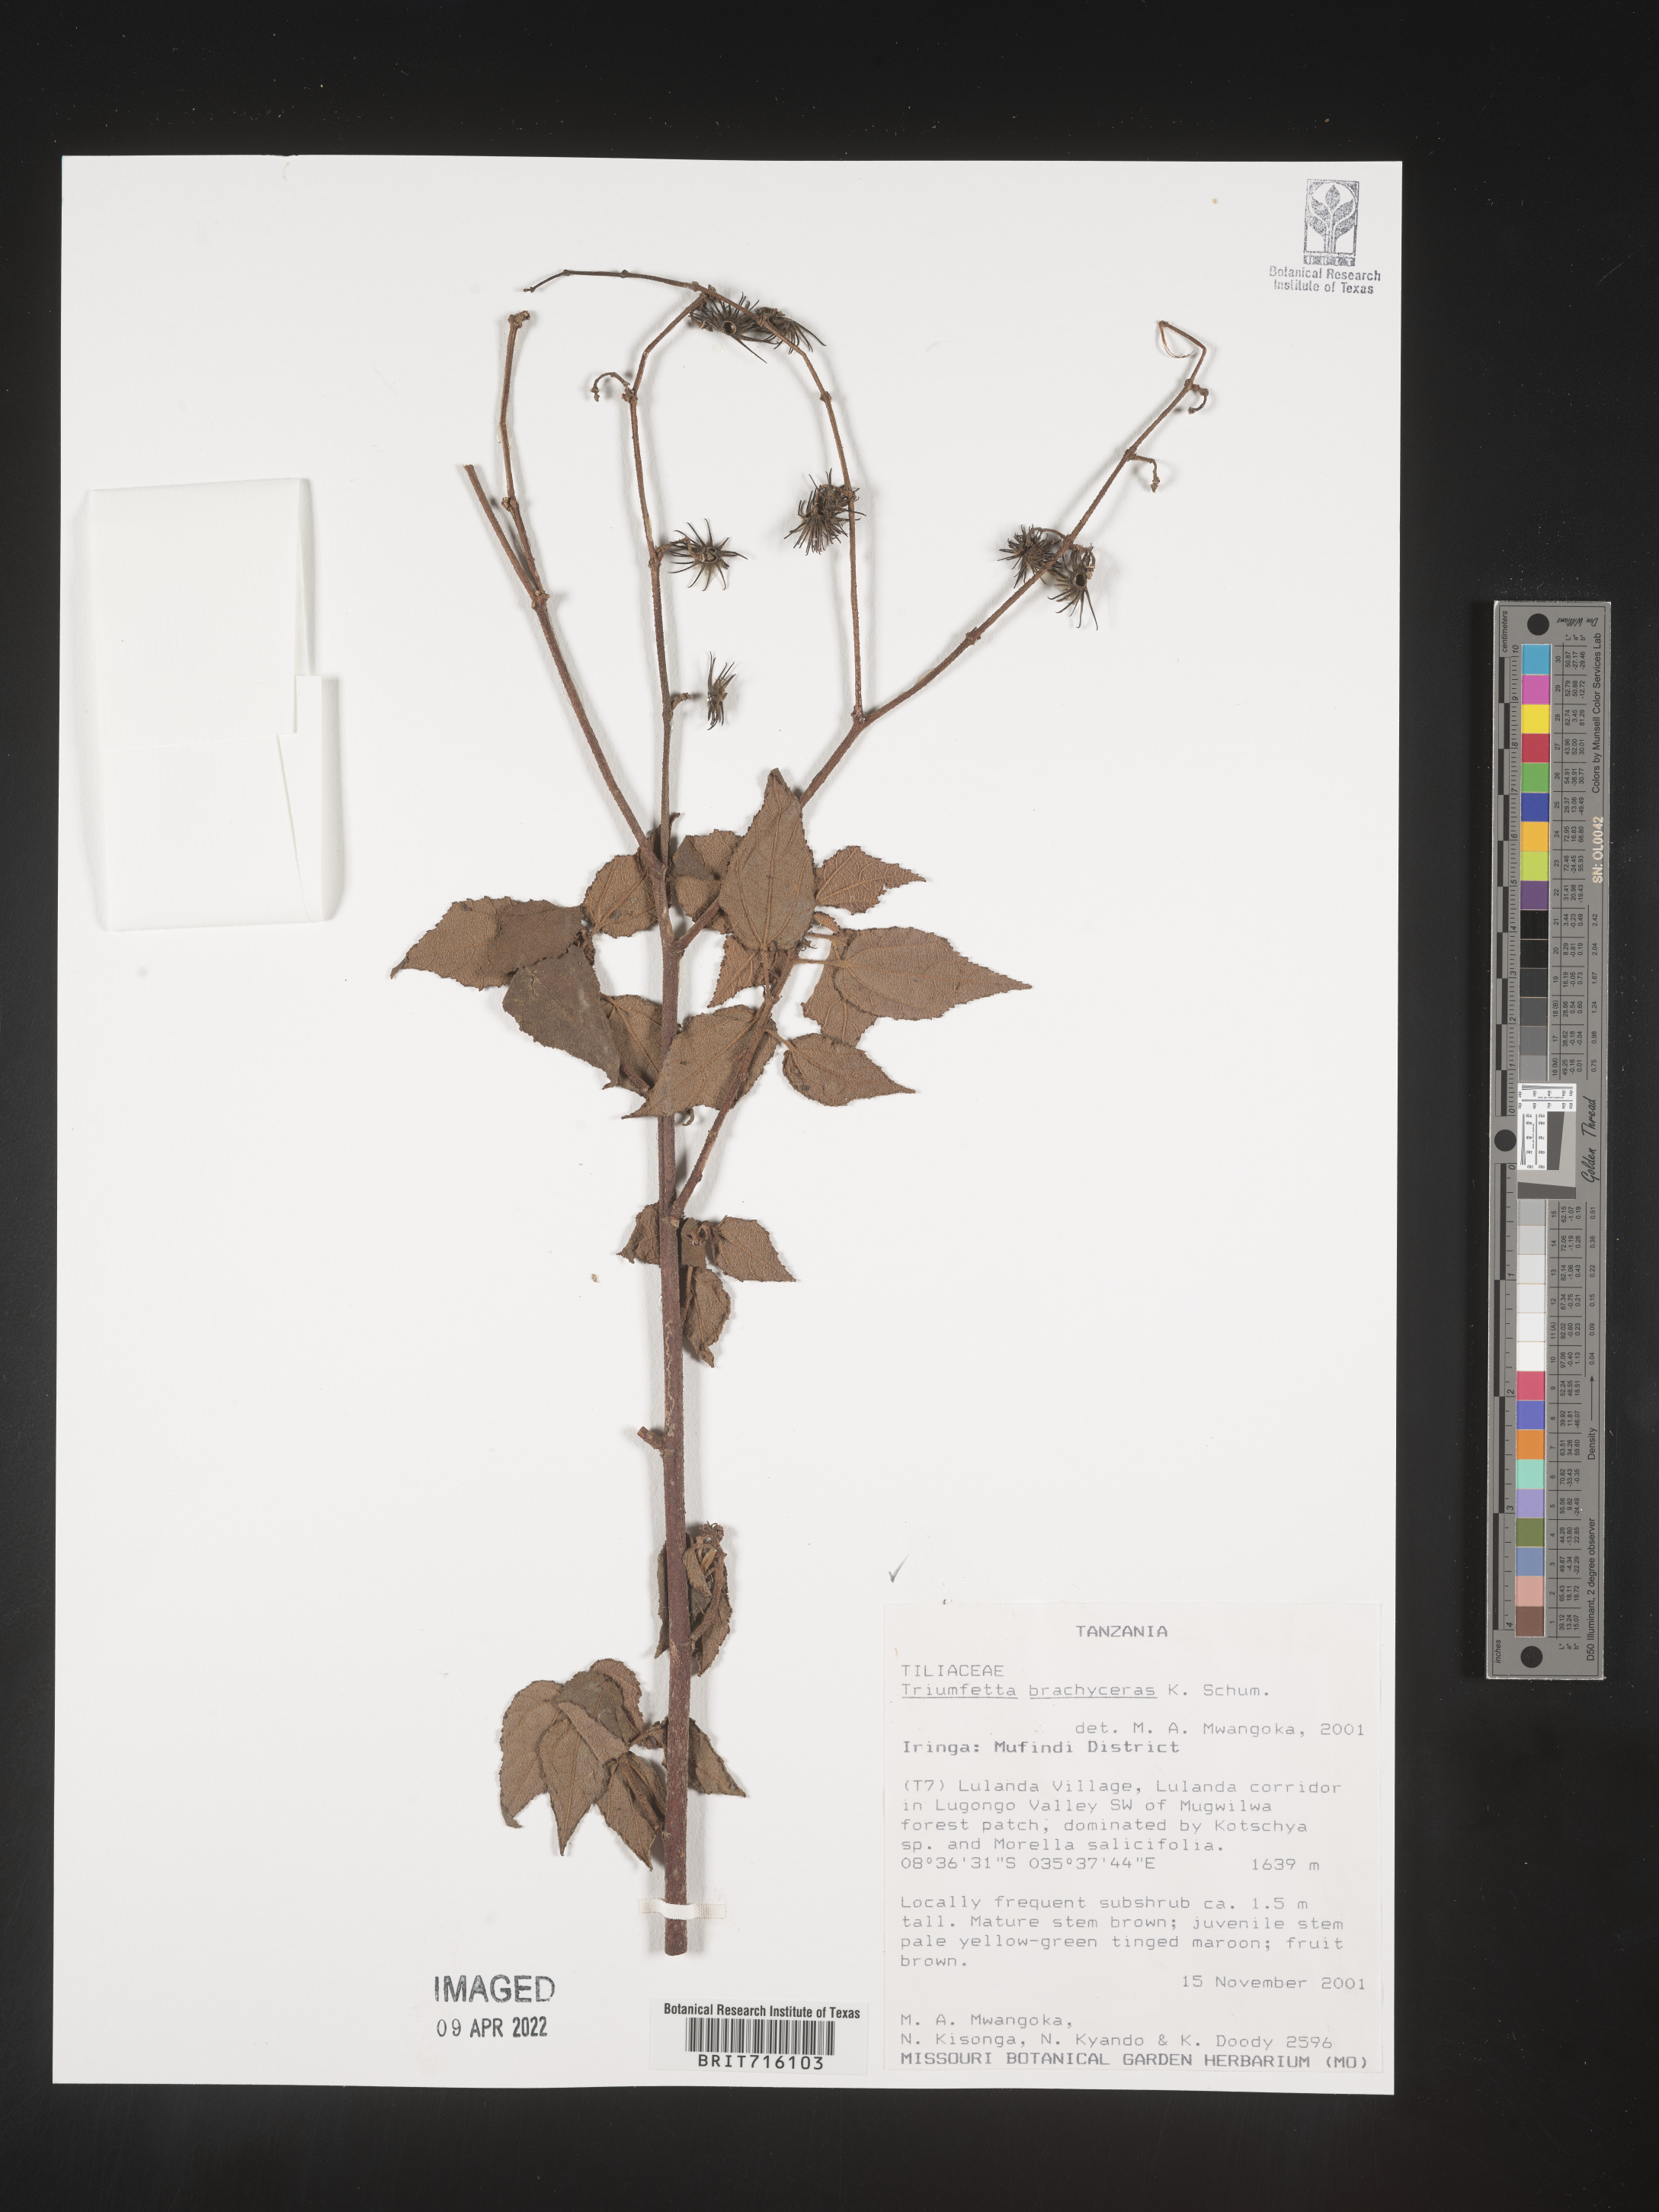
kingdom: Plantae
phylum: Tracheophyta
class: Magnoliopsida
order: Malvales
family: Malvaceae
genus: Triumfetta
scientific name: Triumfetta
